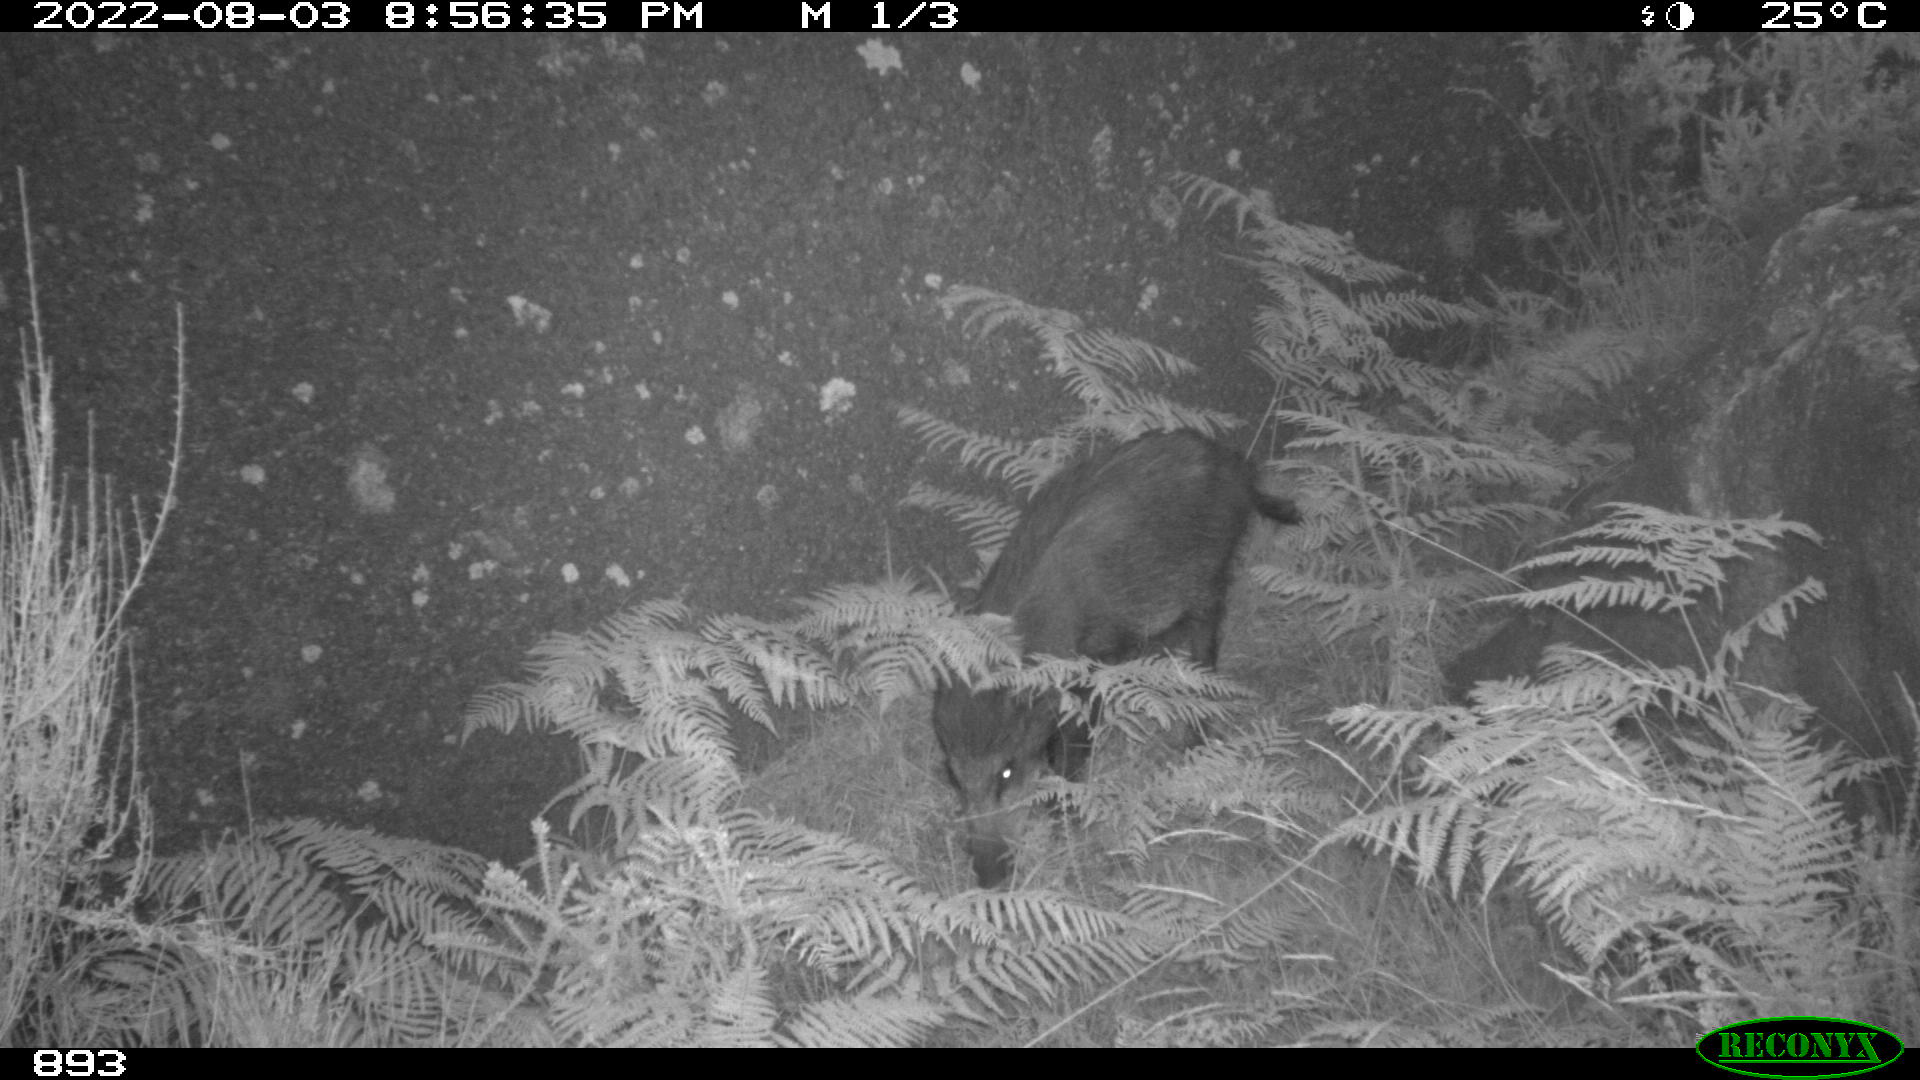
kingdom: Animalia
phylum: Chordata
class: Mammalia
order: Artiodactyla
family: Suidae
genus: Sus
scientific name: Sus scrofa
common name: Wild boar
